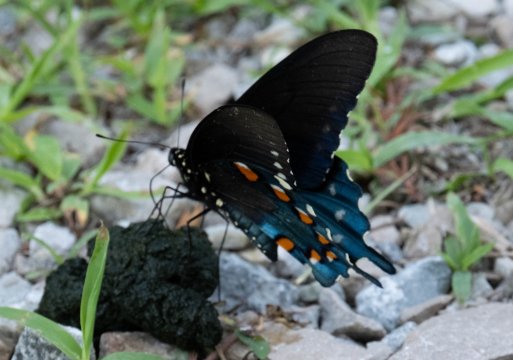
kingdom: Animalia
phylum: Arthropoda
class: Insecta
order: Lepidoptera
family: Papilionidae
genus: Battus
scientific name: Battus philenor
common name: Pipevine Swallowtail
